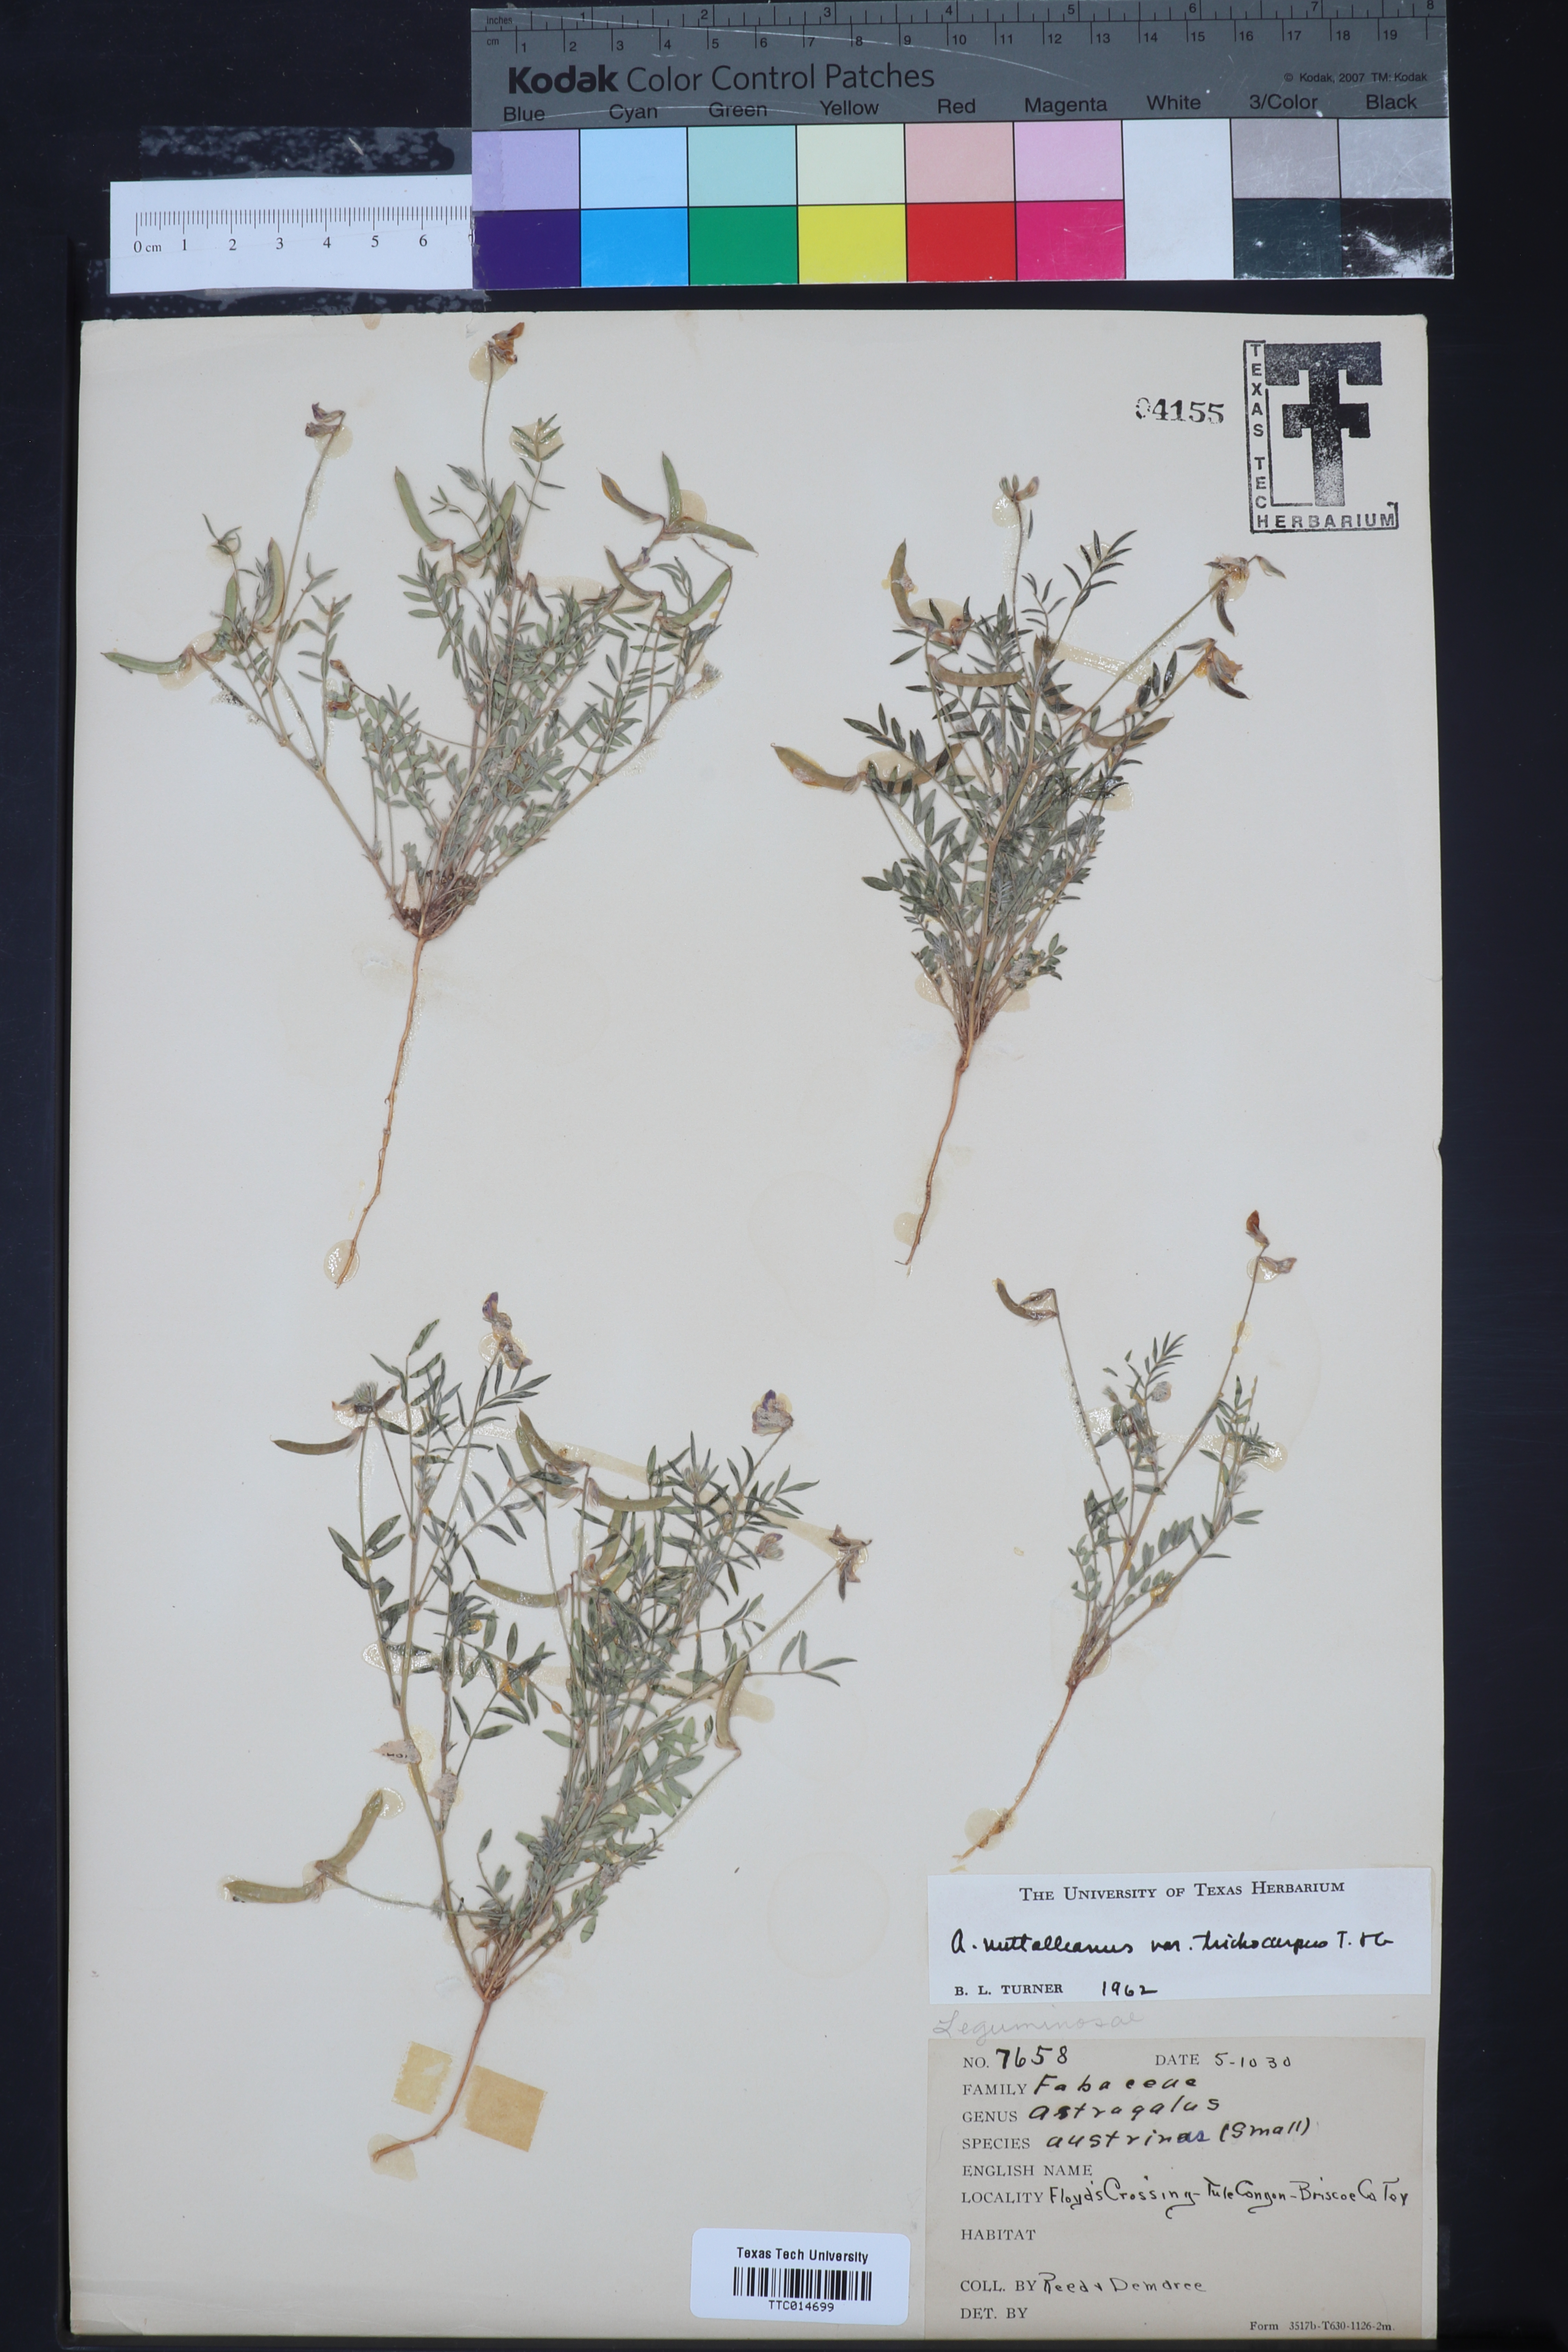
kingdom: Plantae
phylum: Tracheophyta
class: Magnoliopsida
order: Fabales
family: Fabaceae
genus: Astragalus
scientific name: Astragalus nuttallianus
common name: Smallflowered milkvetch
